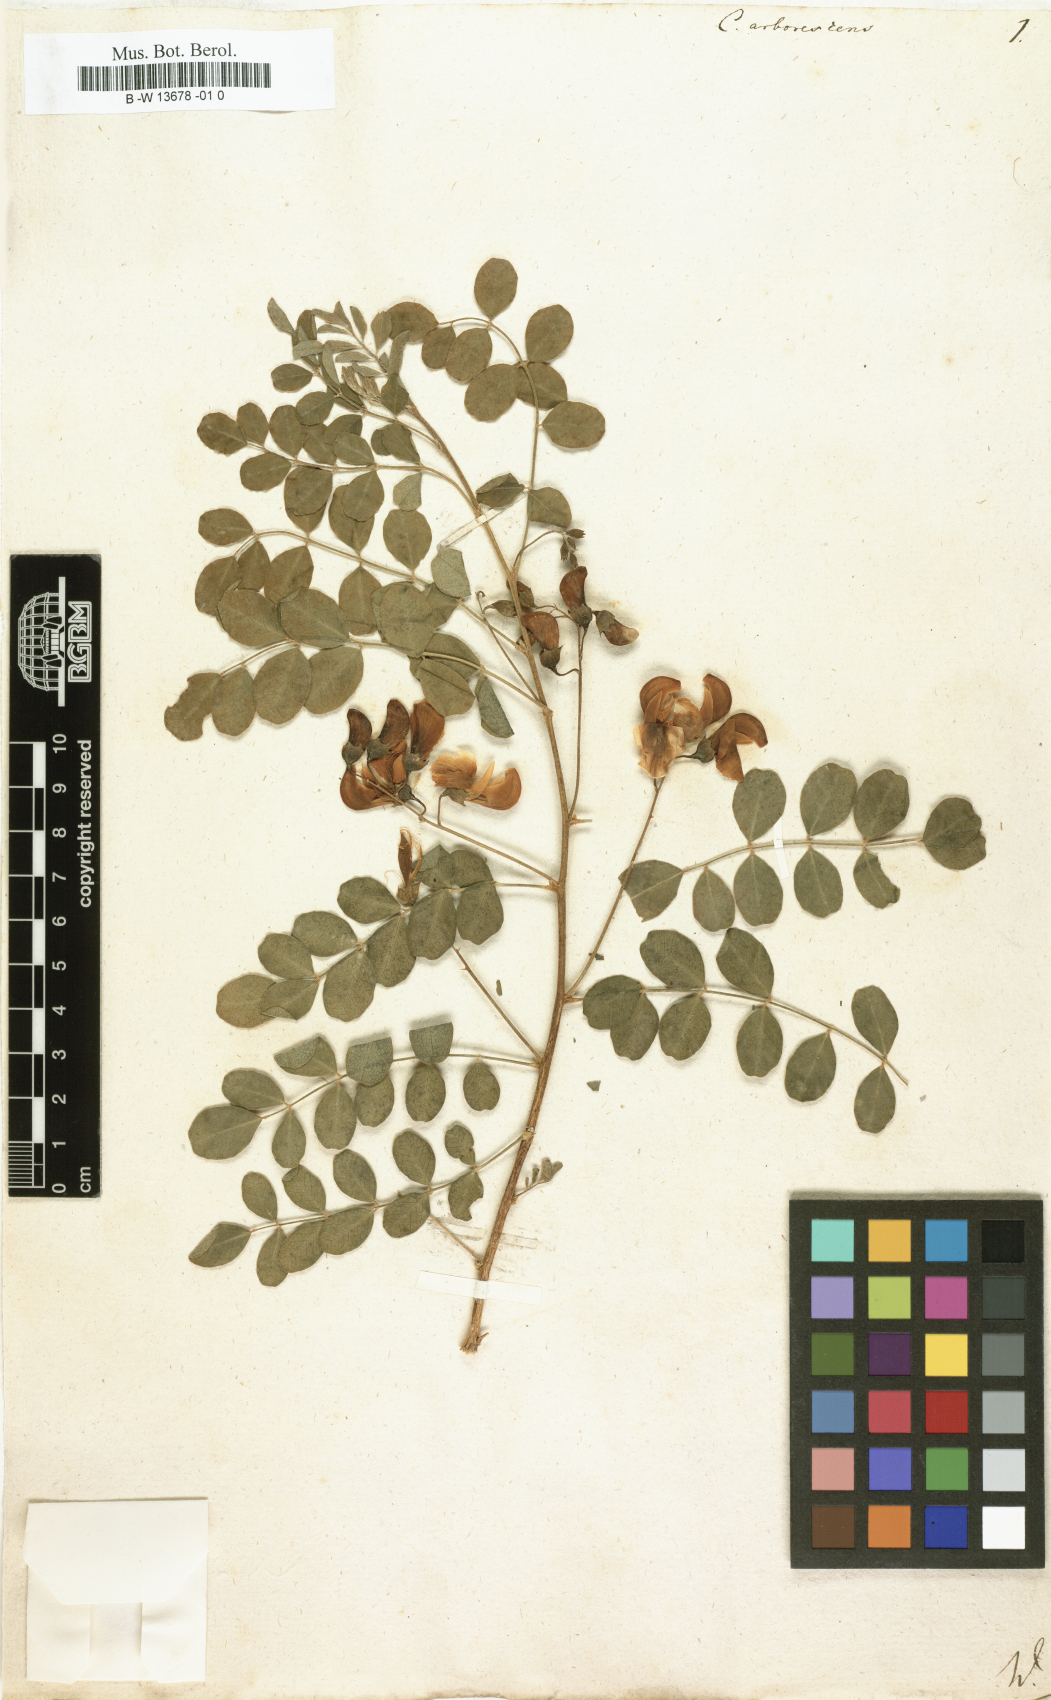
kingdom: Plantae
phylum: Tracheophyta
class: Magnoliopsida
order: Fabales
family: Fabaceae
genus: Colutea
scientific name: Colutea arborescens
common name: Bladder-senna
